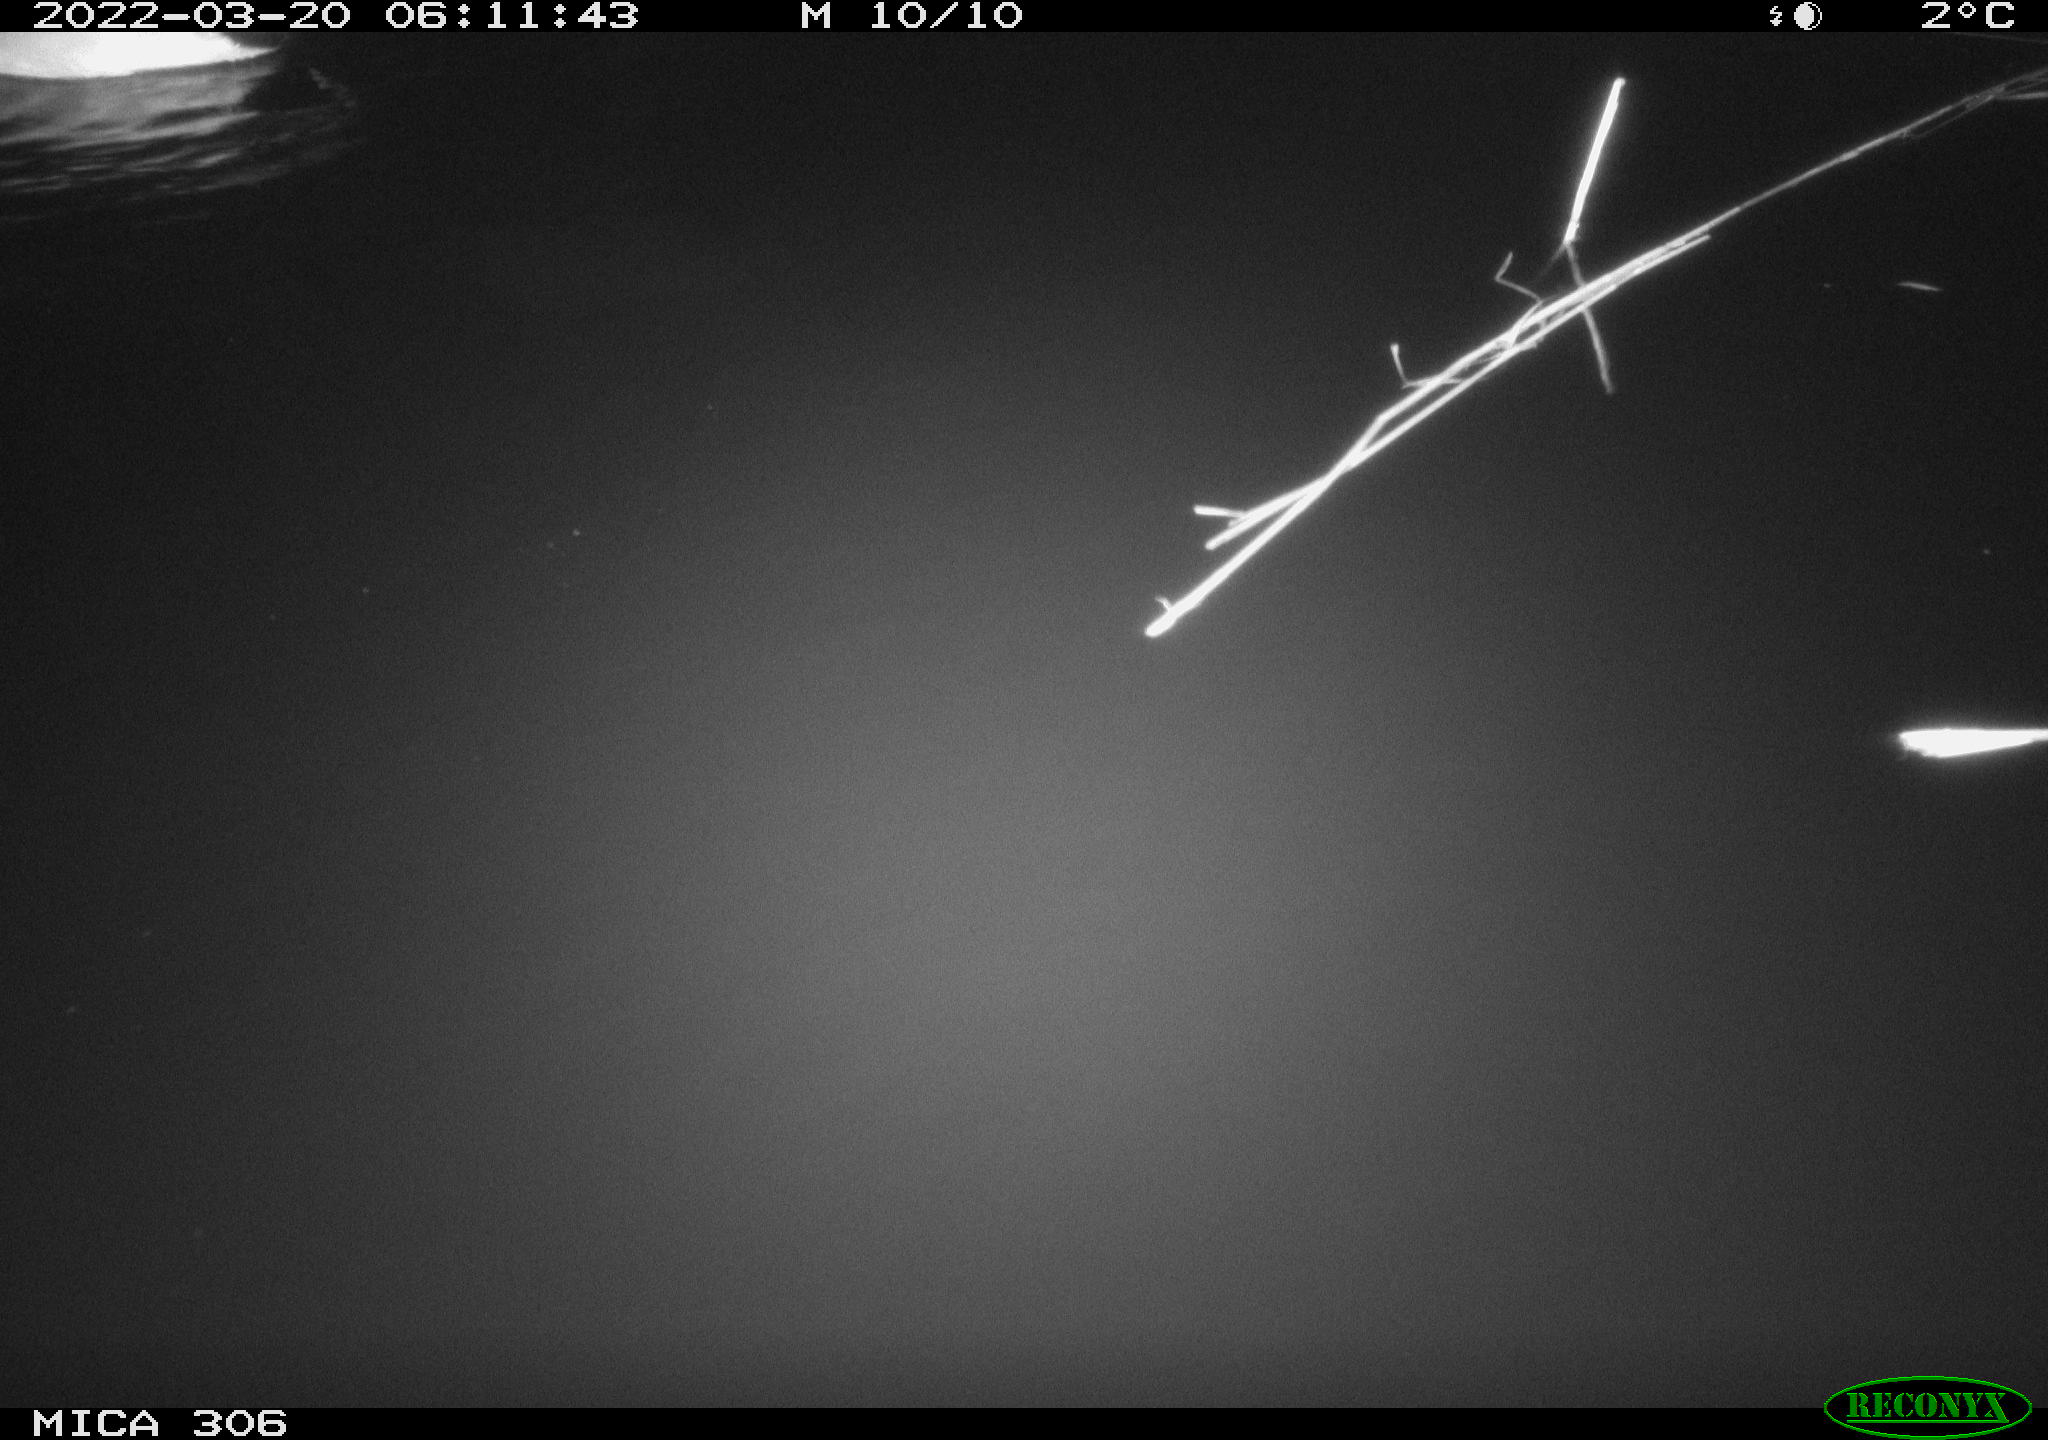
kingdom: Animalia
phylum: Chordata
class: Aves
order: Anseriformes
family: Anatidae
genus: Anas
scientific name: Anas
